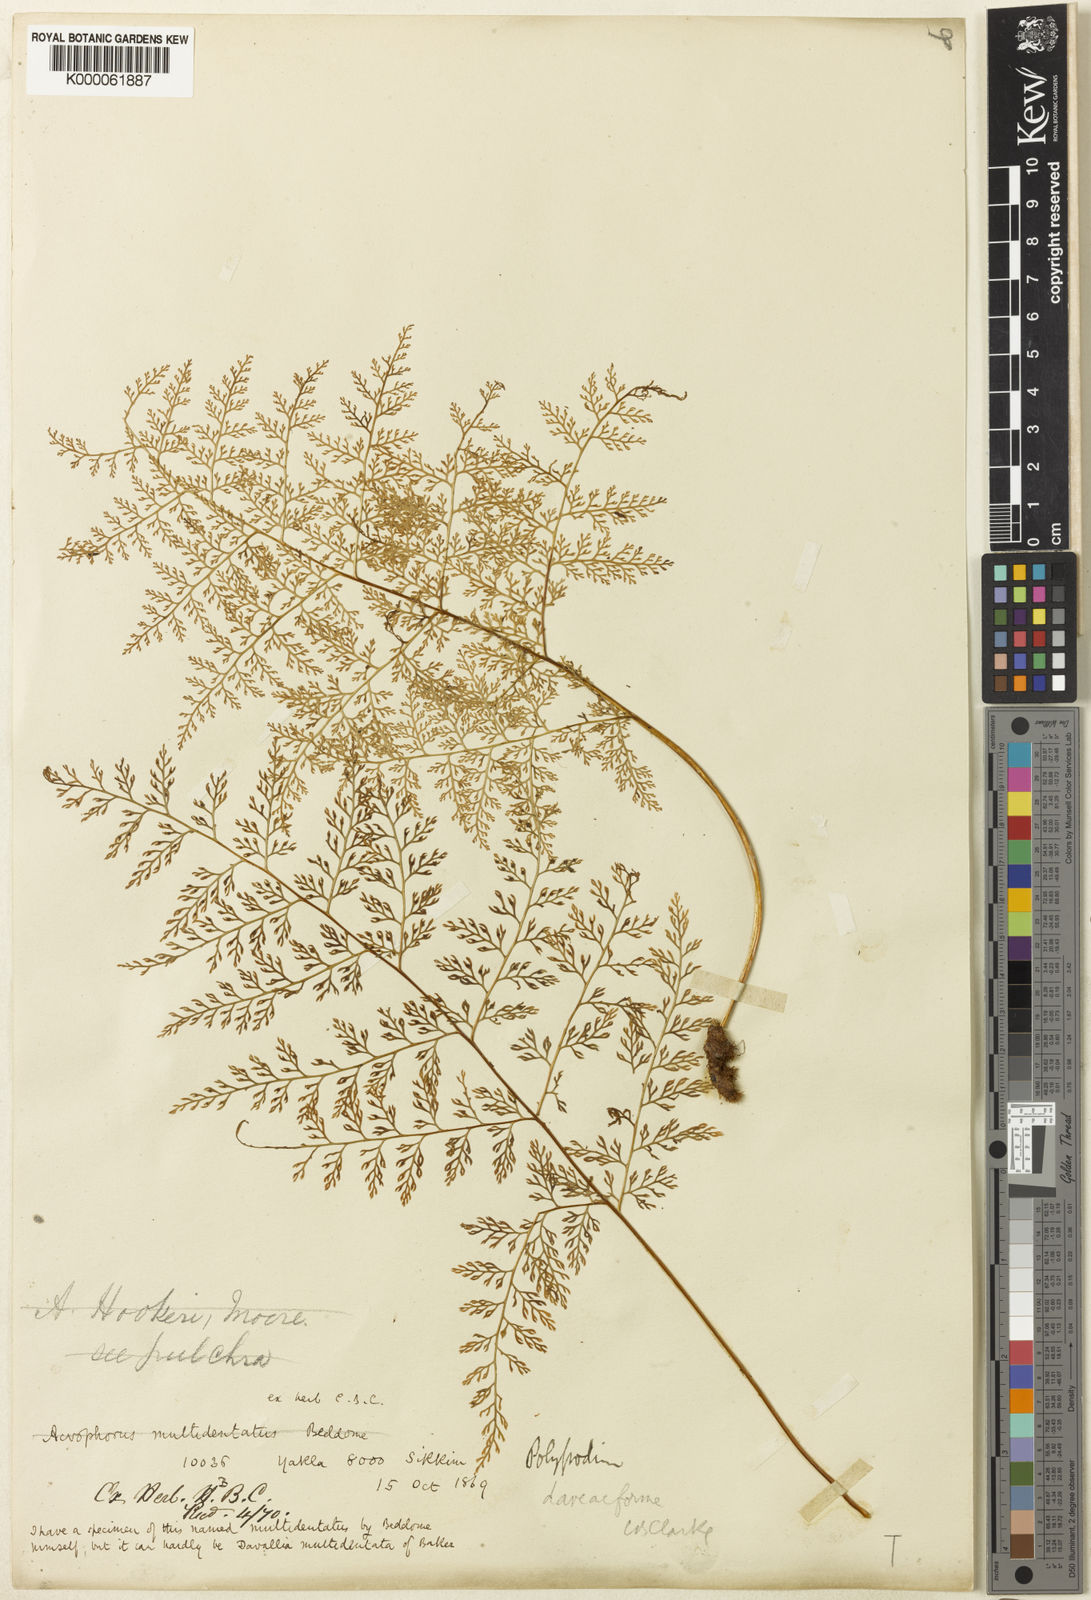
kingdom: Plantae
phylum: Tracheophyta
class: Polypodiopsida
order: Polypodiales
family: Polypodiaceae
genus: Selliguea
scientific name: Selliguea dareiformis
